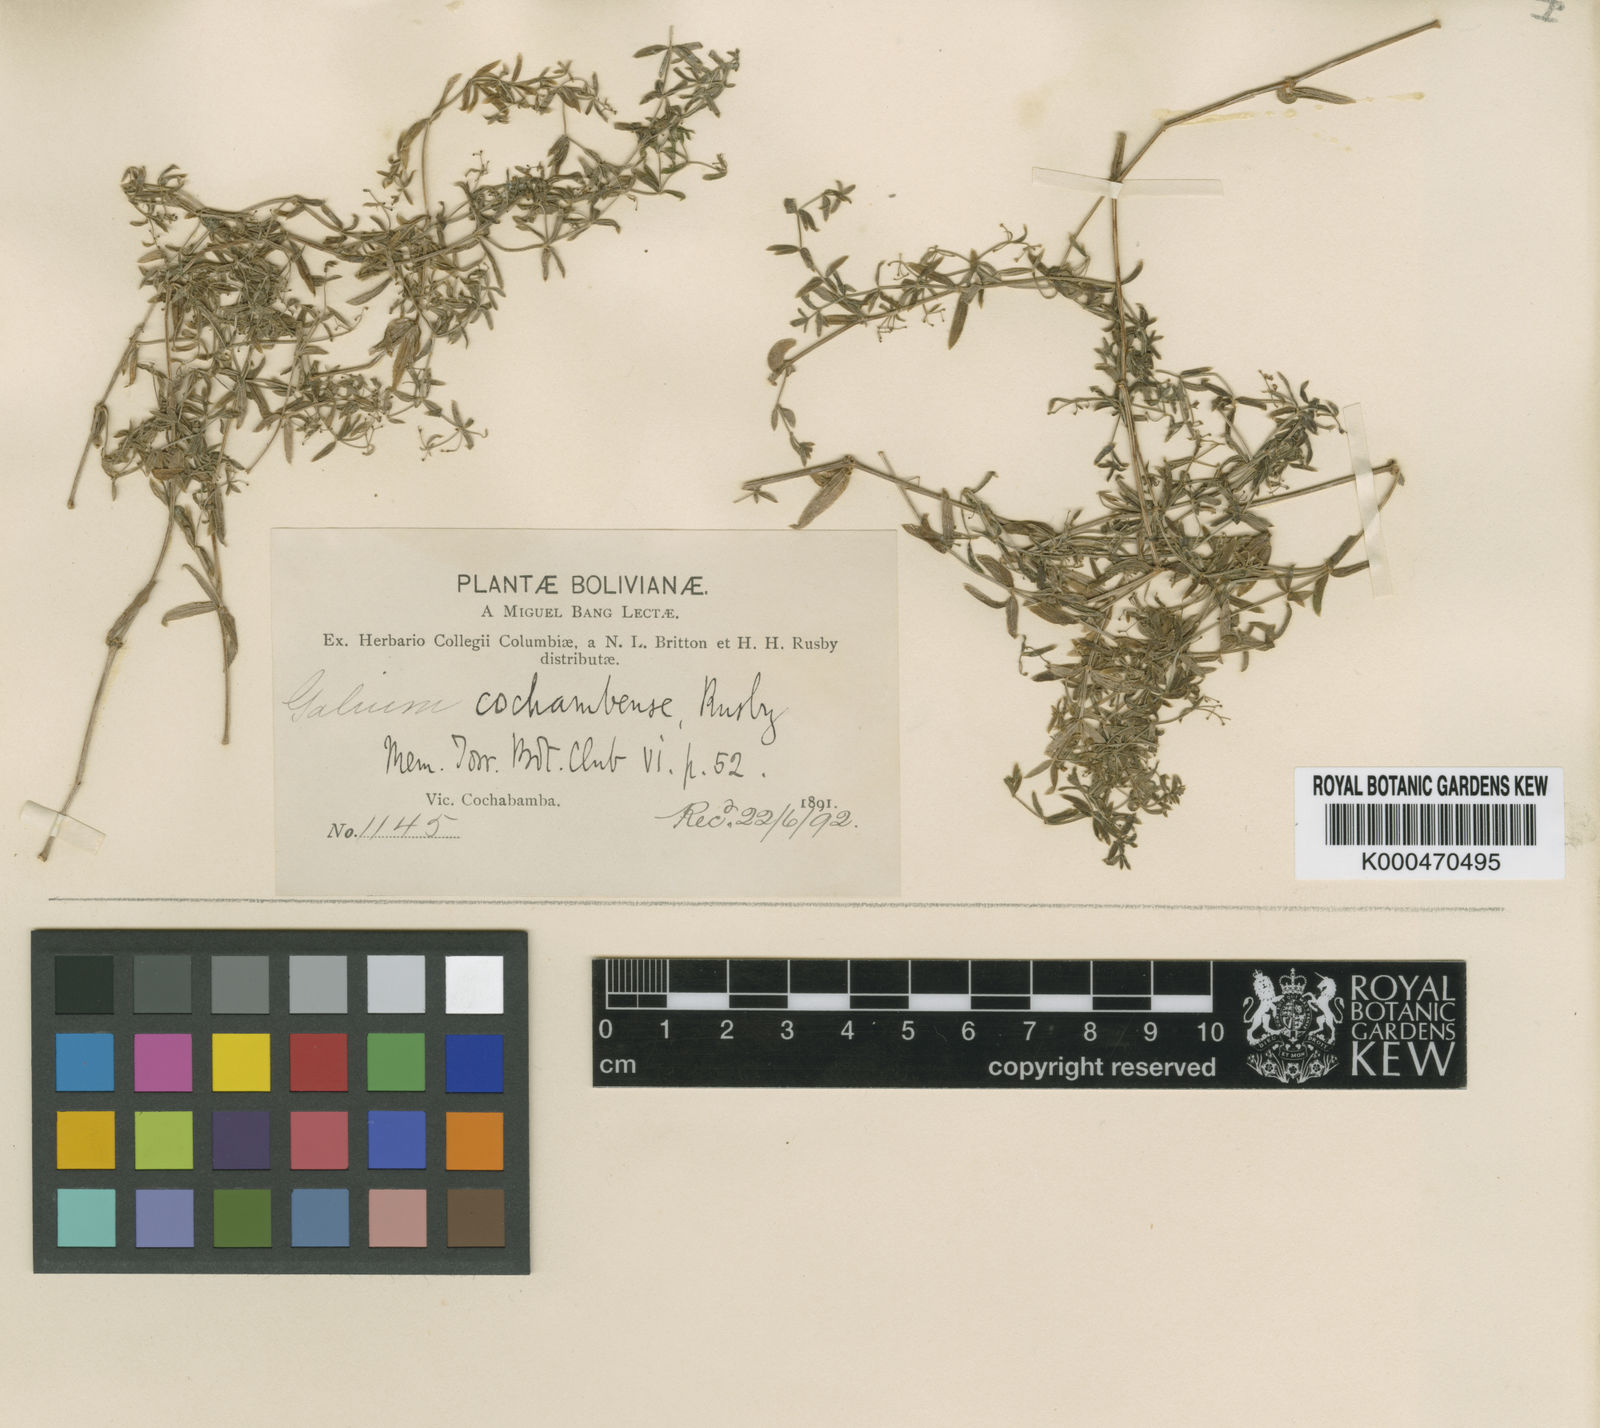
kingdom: Plantae
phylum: Tracheophyta
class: Magnoliopsida
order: Gentianales
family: Rubiaceae
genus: Galium
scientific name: Galium plumosum
